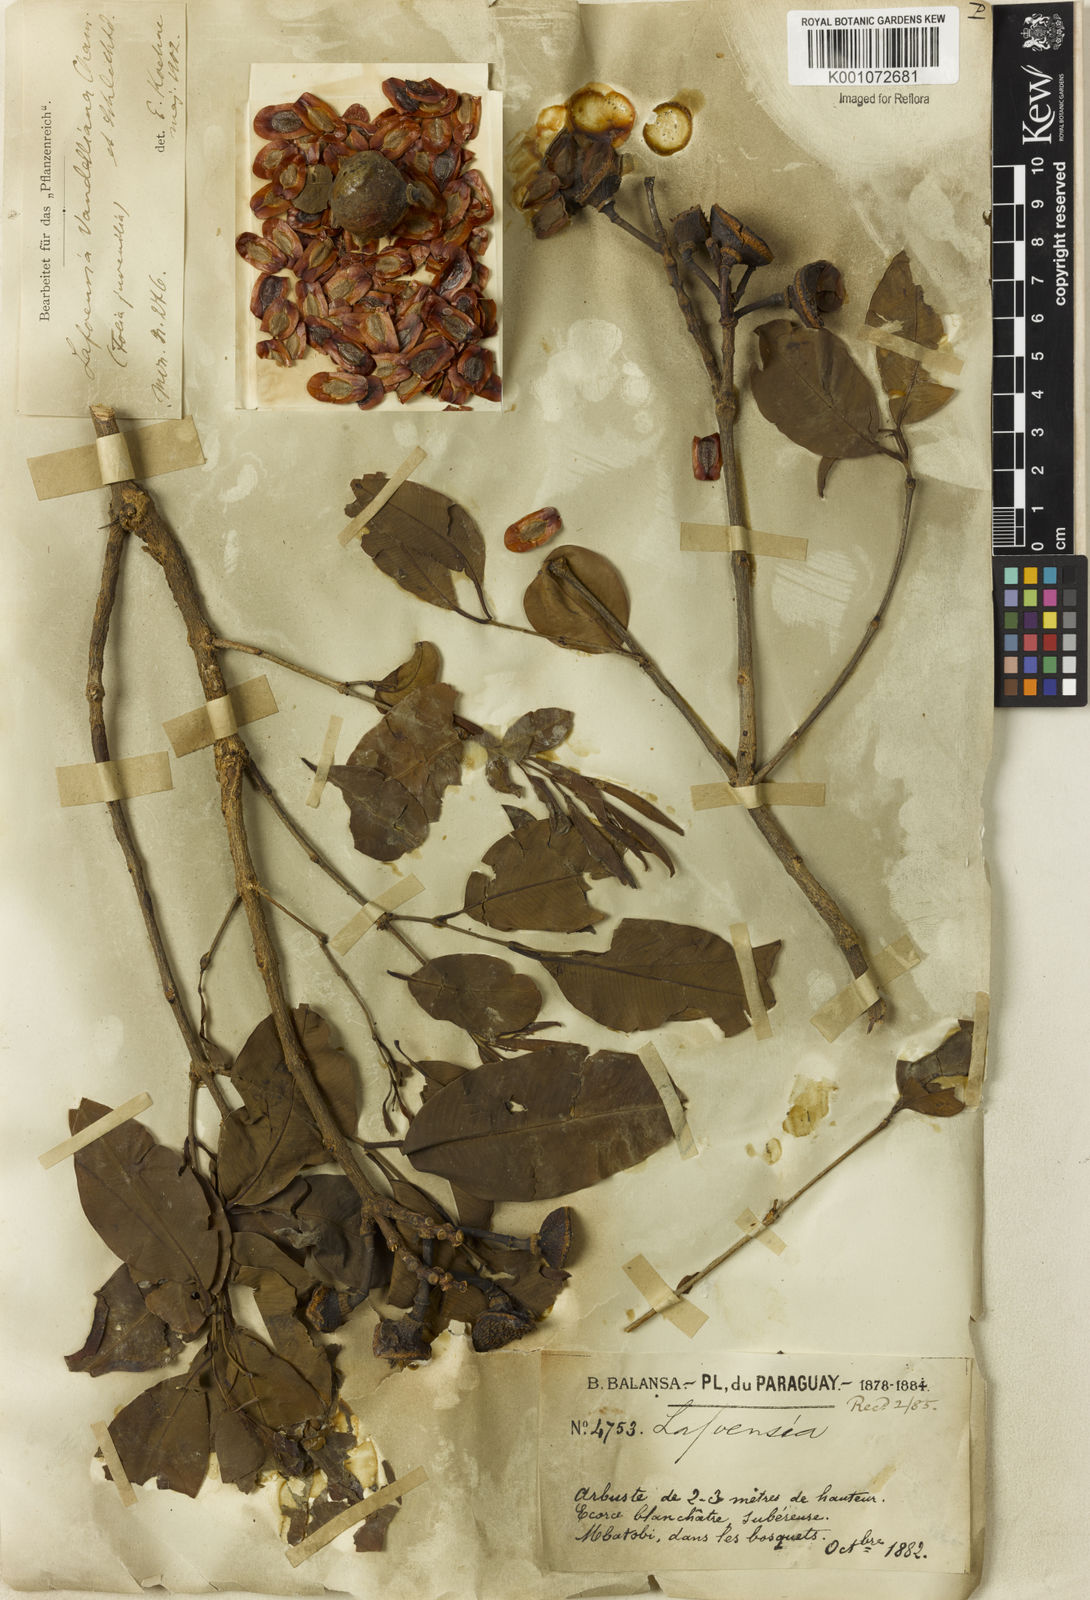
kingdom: Plantae
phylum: Tracheophyta
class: Magnoliopsida
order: Myrtales
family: Lythraceae
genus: Lafoensia
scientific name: Lafoensia vandelliana
